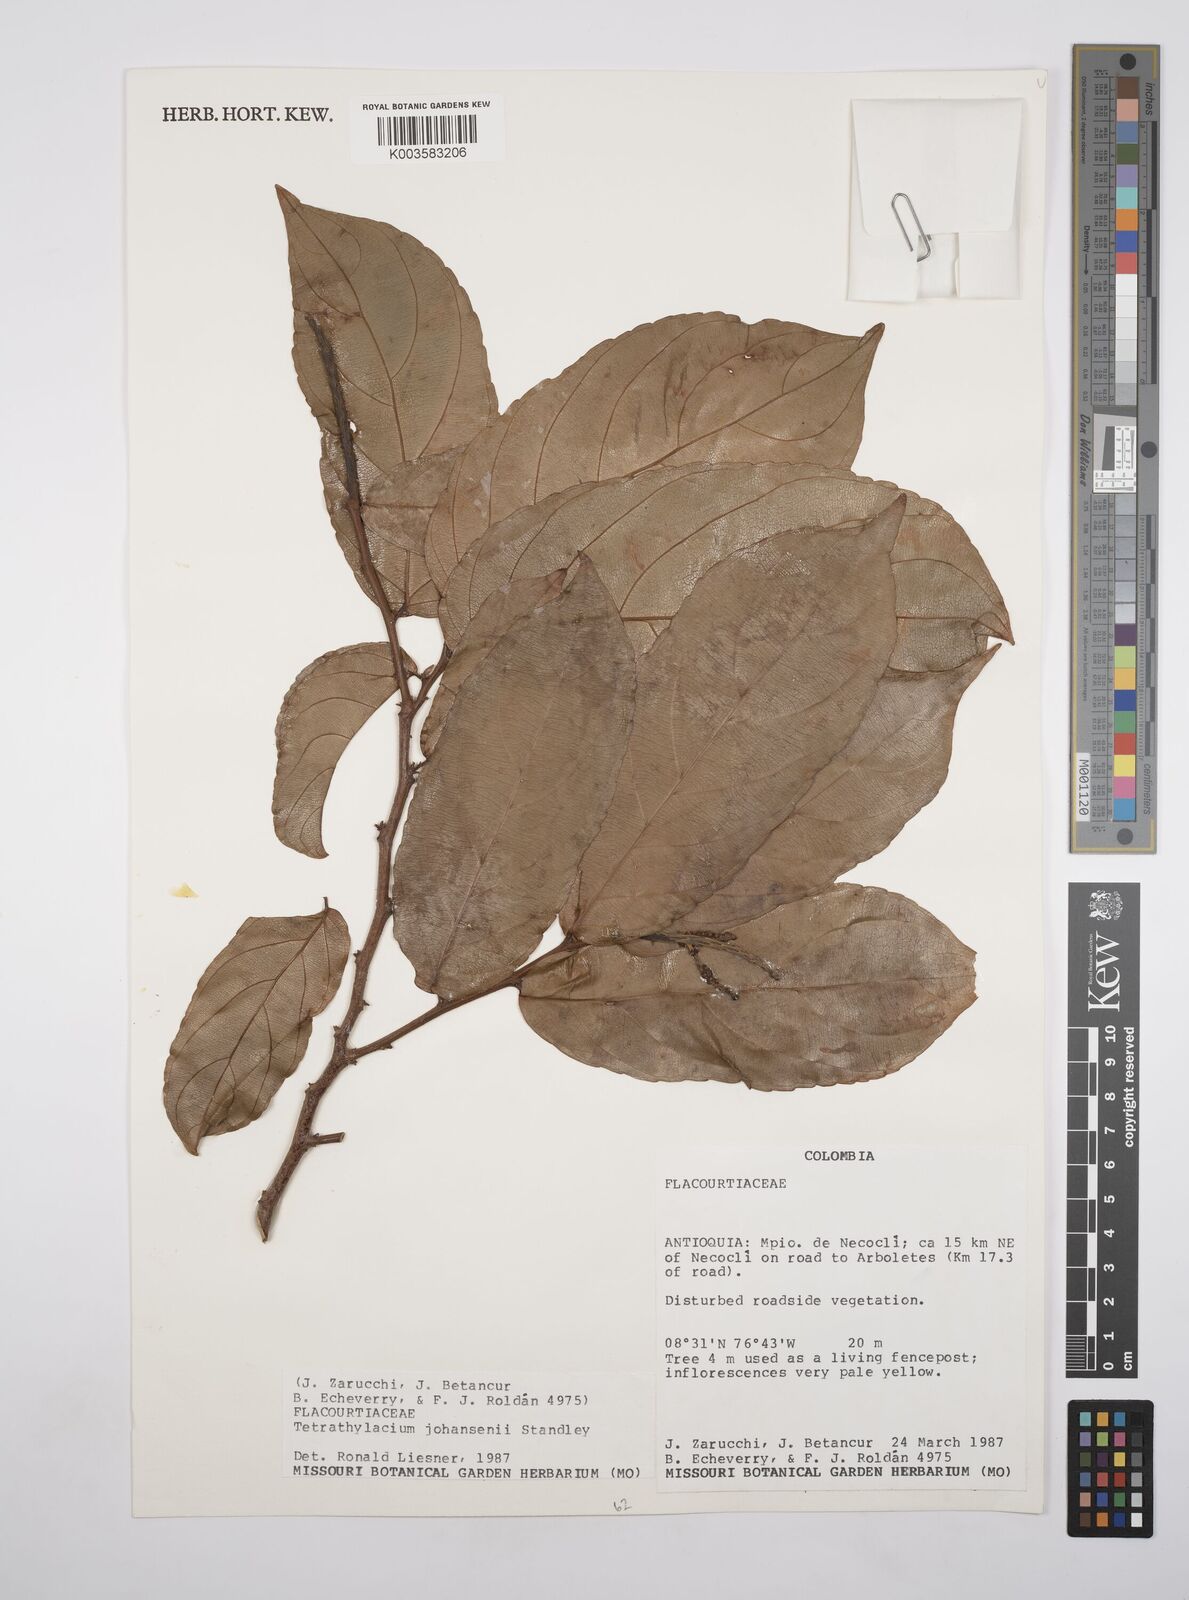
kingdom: Plantae
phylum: Tracheophyta
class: Magnoliopsida
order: Malpighiales
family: Salicaceae
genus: Tetrathylacium
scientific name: Tetrathylacium johansenii
